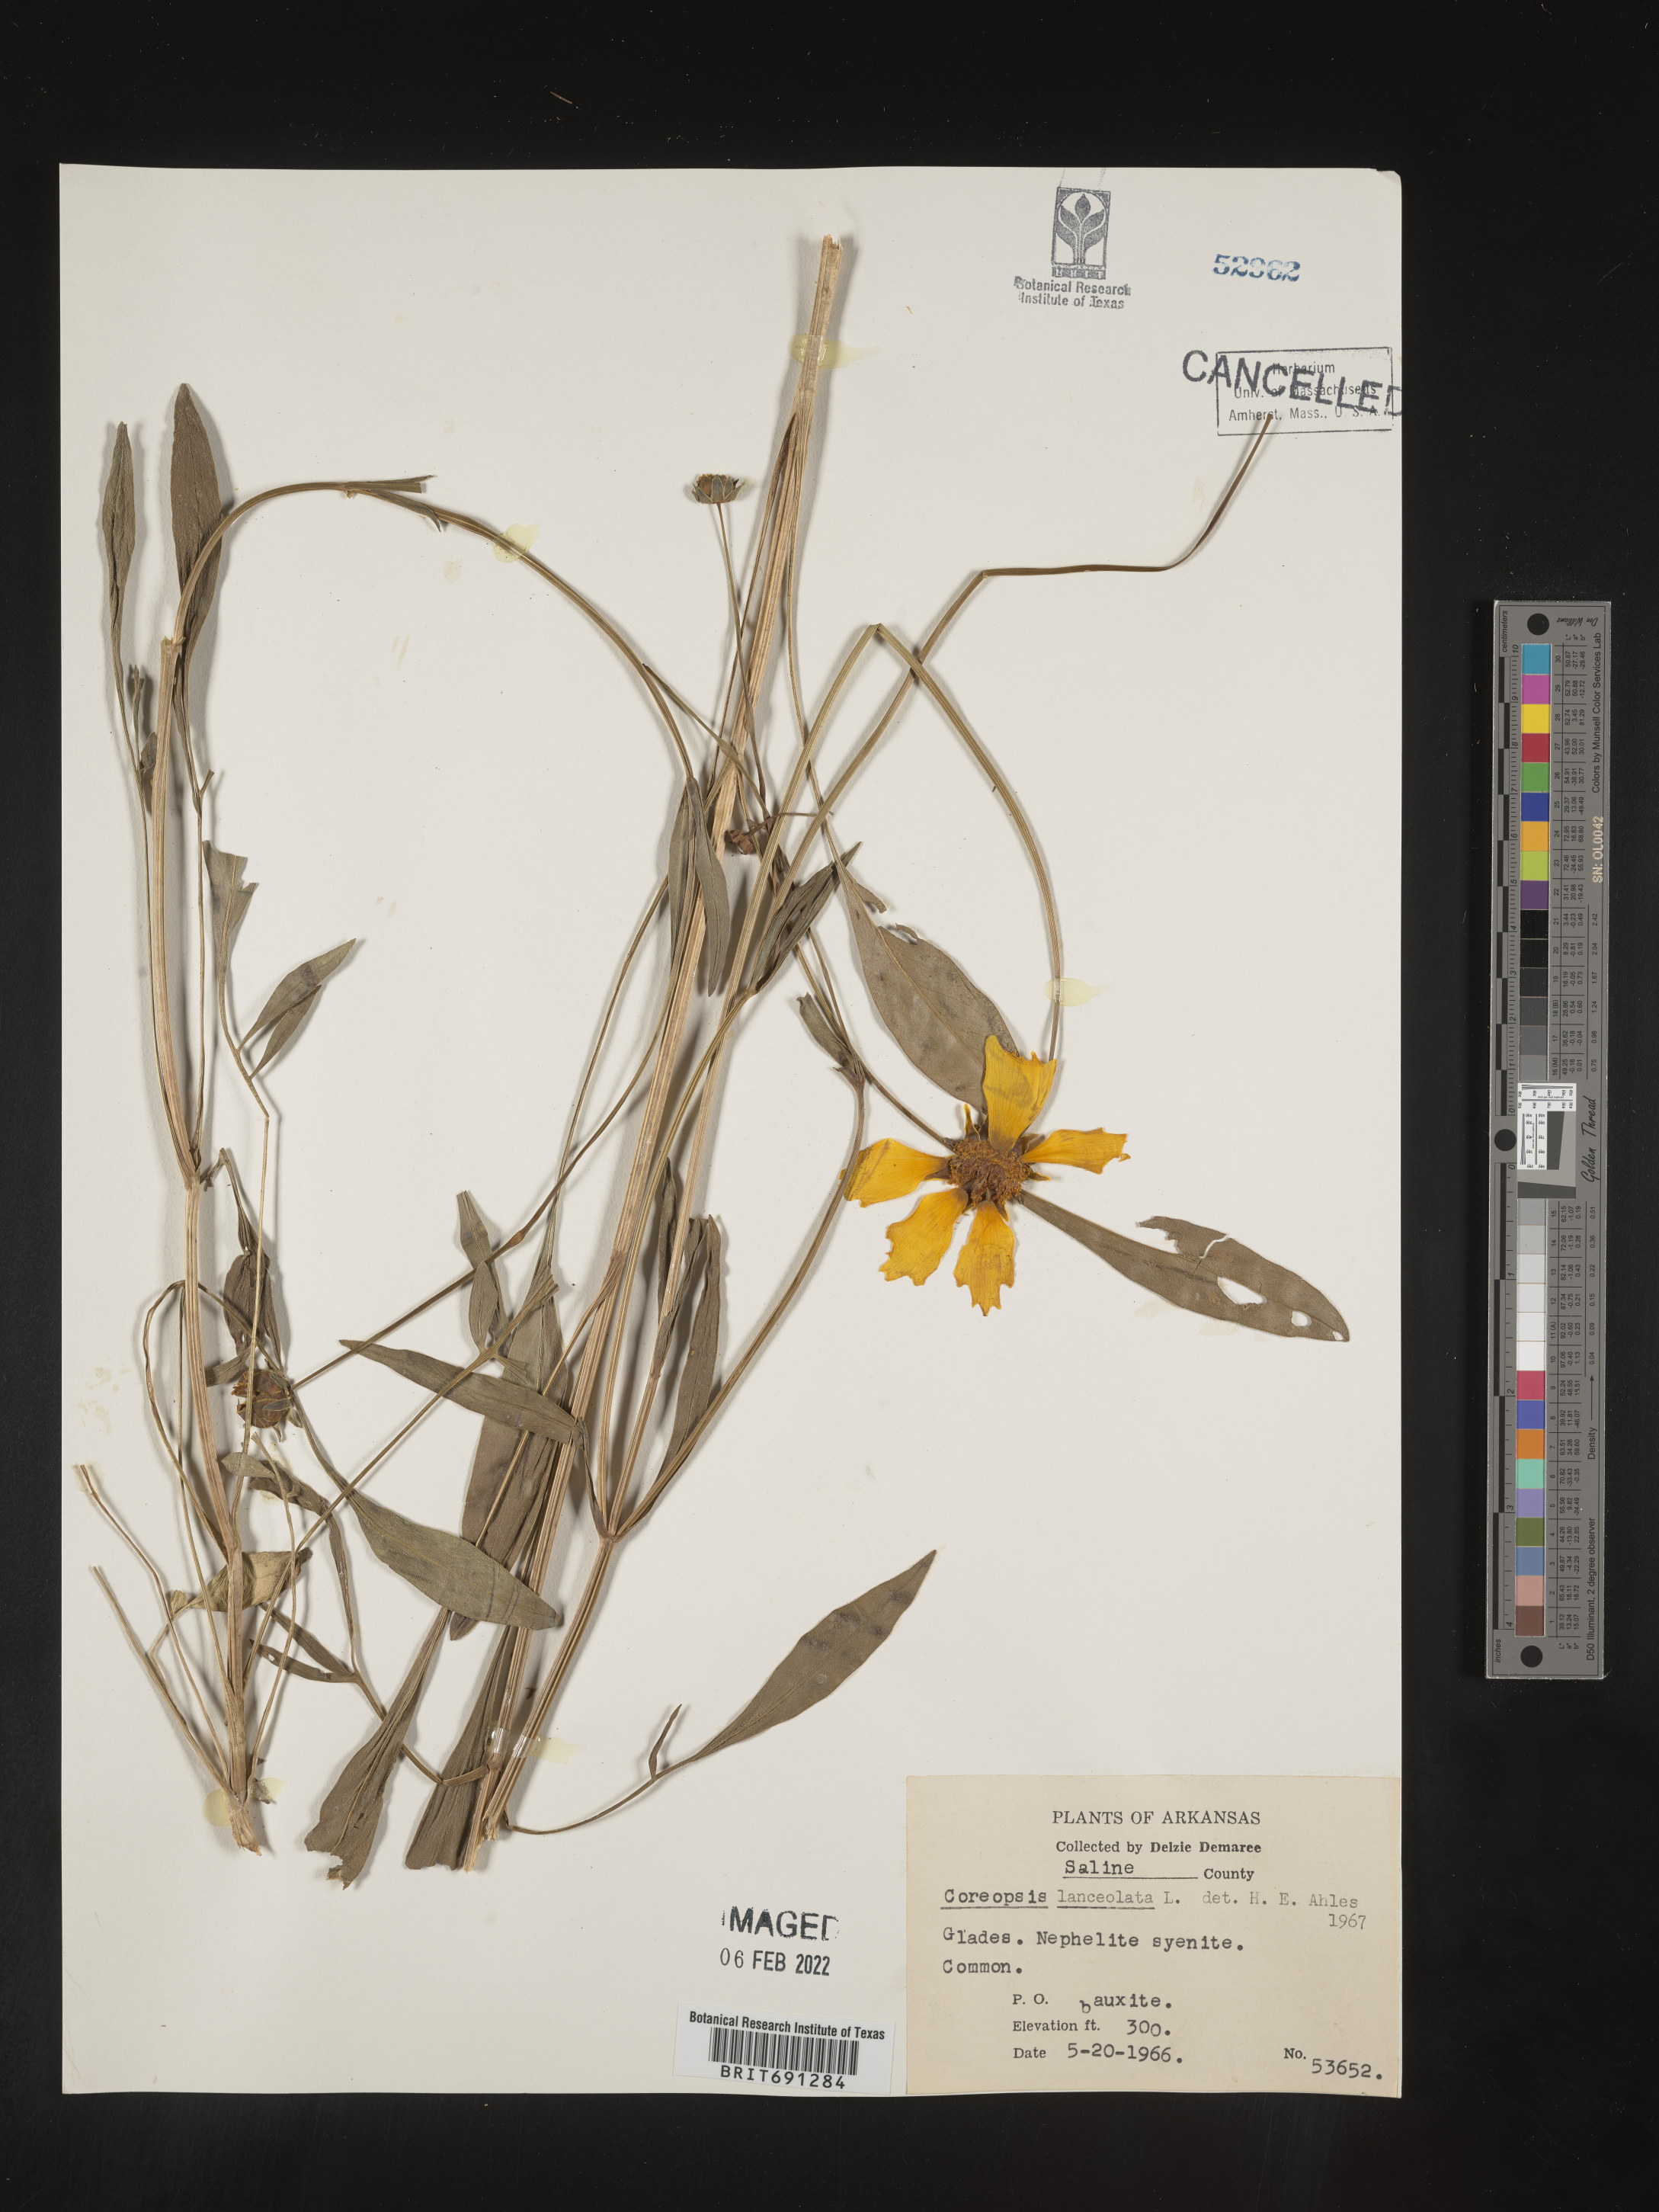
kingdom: Plantae
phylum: Tracheophyta
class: Magnoliopsida
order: Asterales
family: Asteraceae
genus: Coreopsis
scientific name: Coreopsis lanceolata
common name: Garden coreopsis
